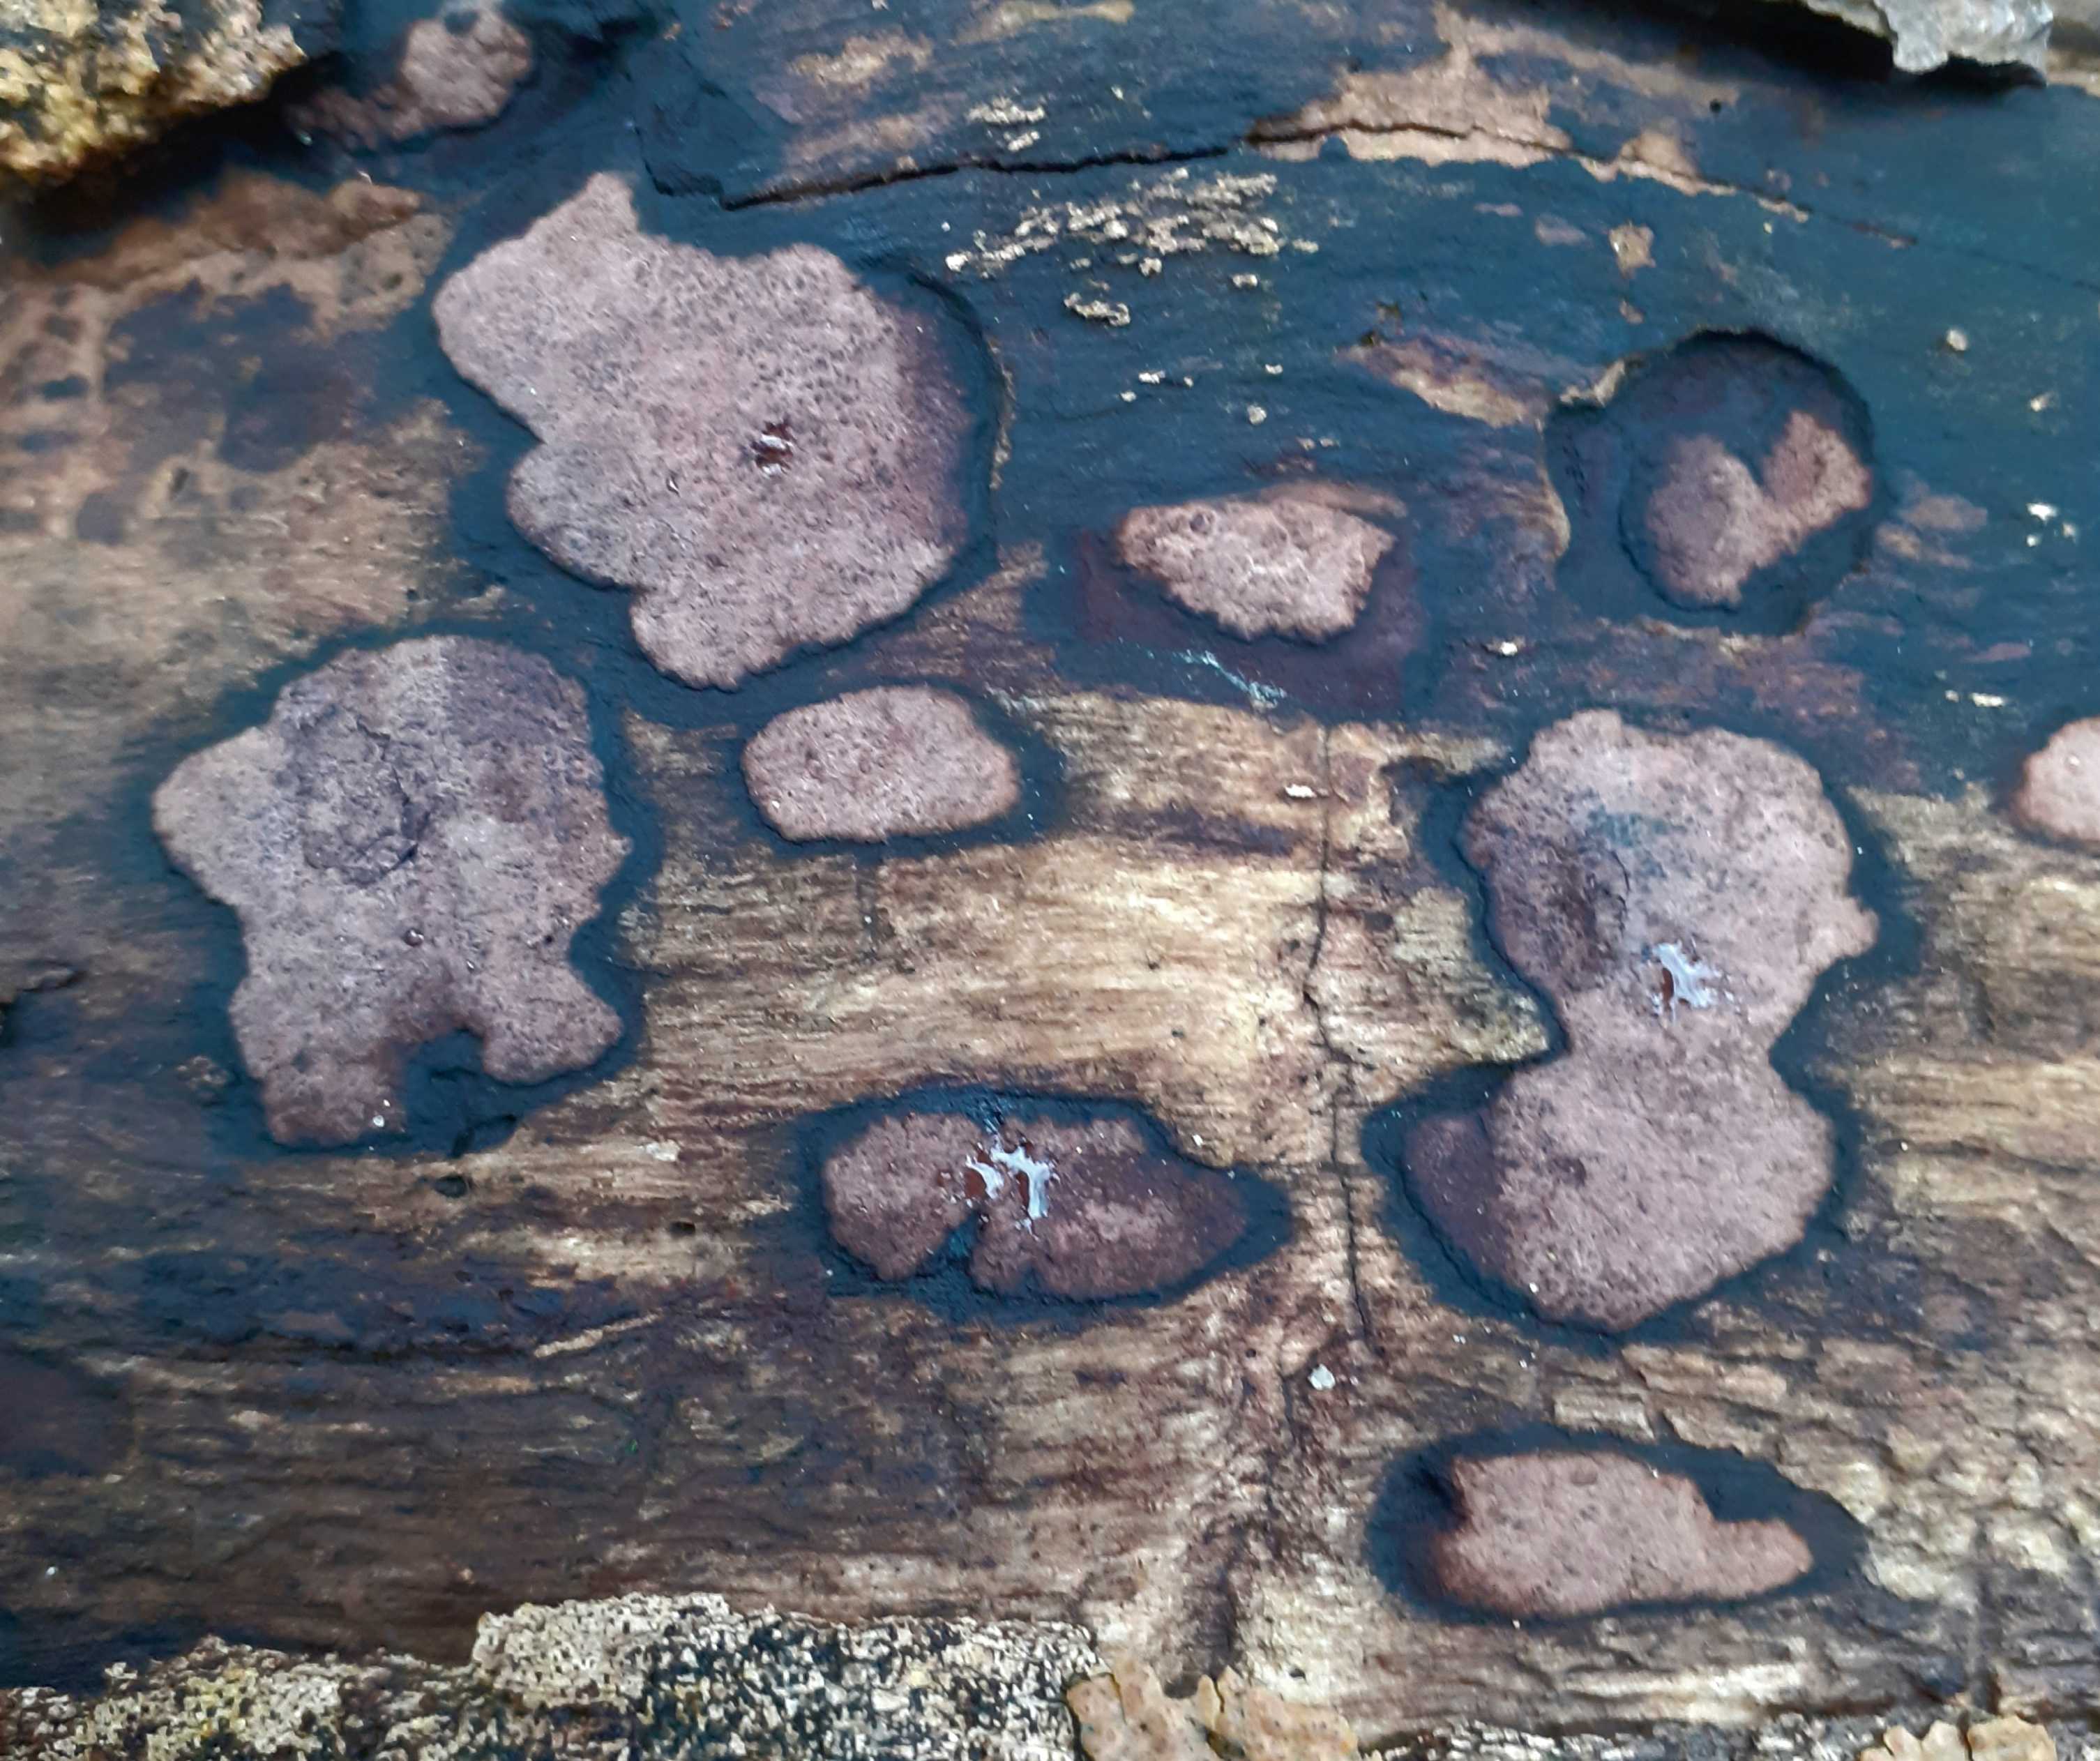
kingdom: Fungi
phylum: Ascomycota
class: Sordariomycetes
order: Xylariales
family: Hypoxylaceae
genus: Hypoxylon
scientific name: Hypoxylon petriniae
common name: nedsænket kulbær
